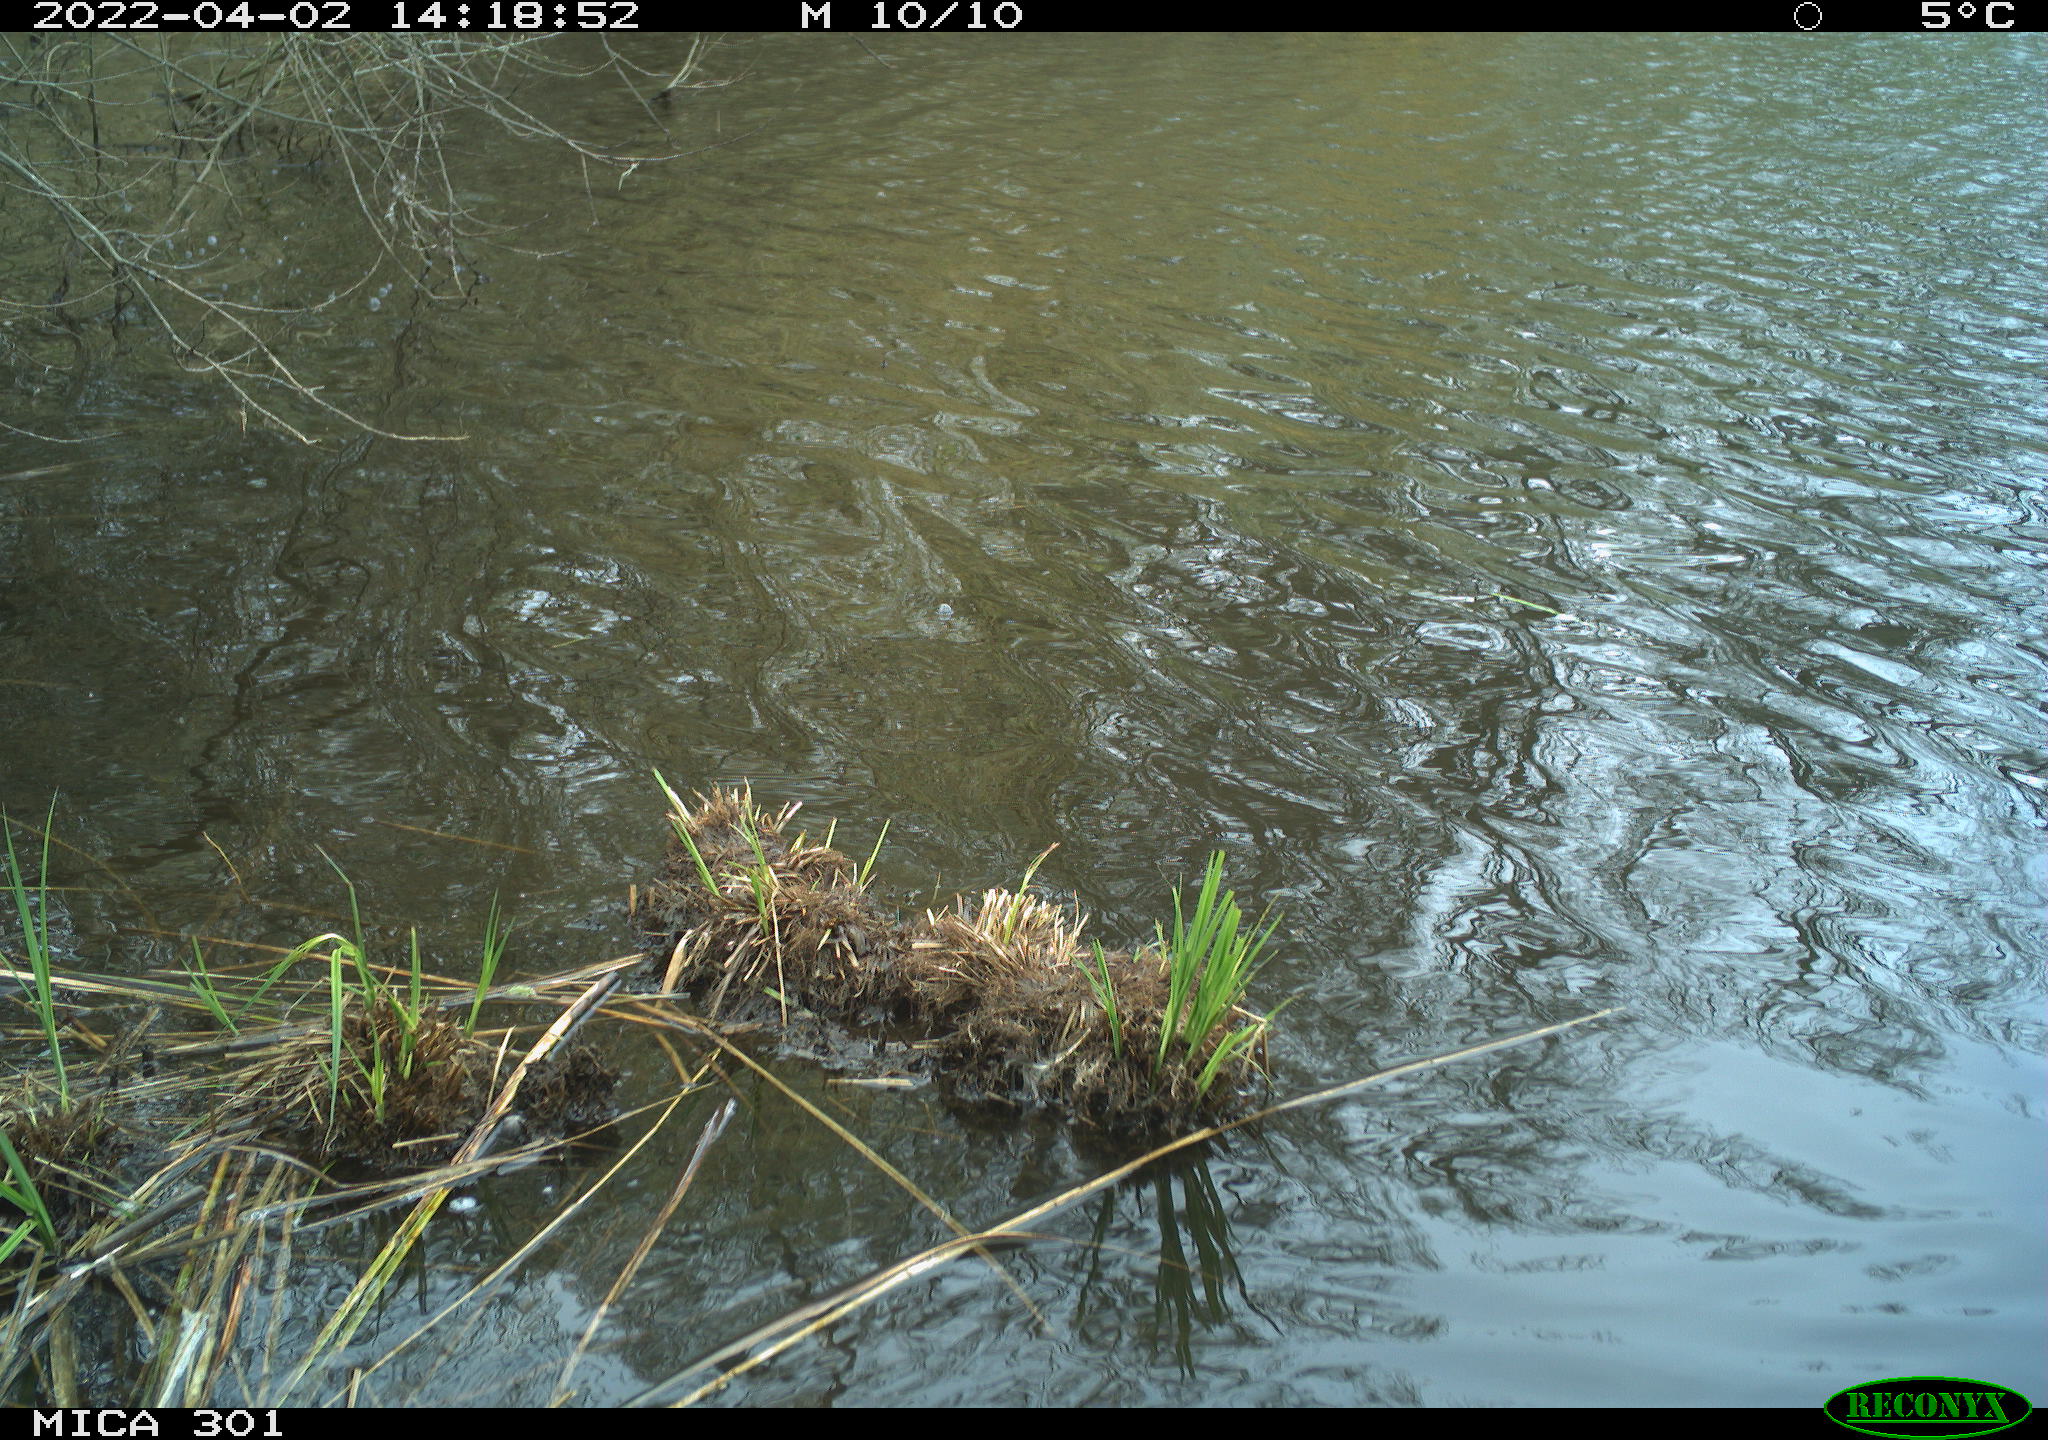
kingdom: Animalia
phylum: Chordata
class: Aves
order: Gruiformes
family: Rallidae
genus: Fulica
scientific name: Fulica atra
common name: Eurasian coot
